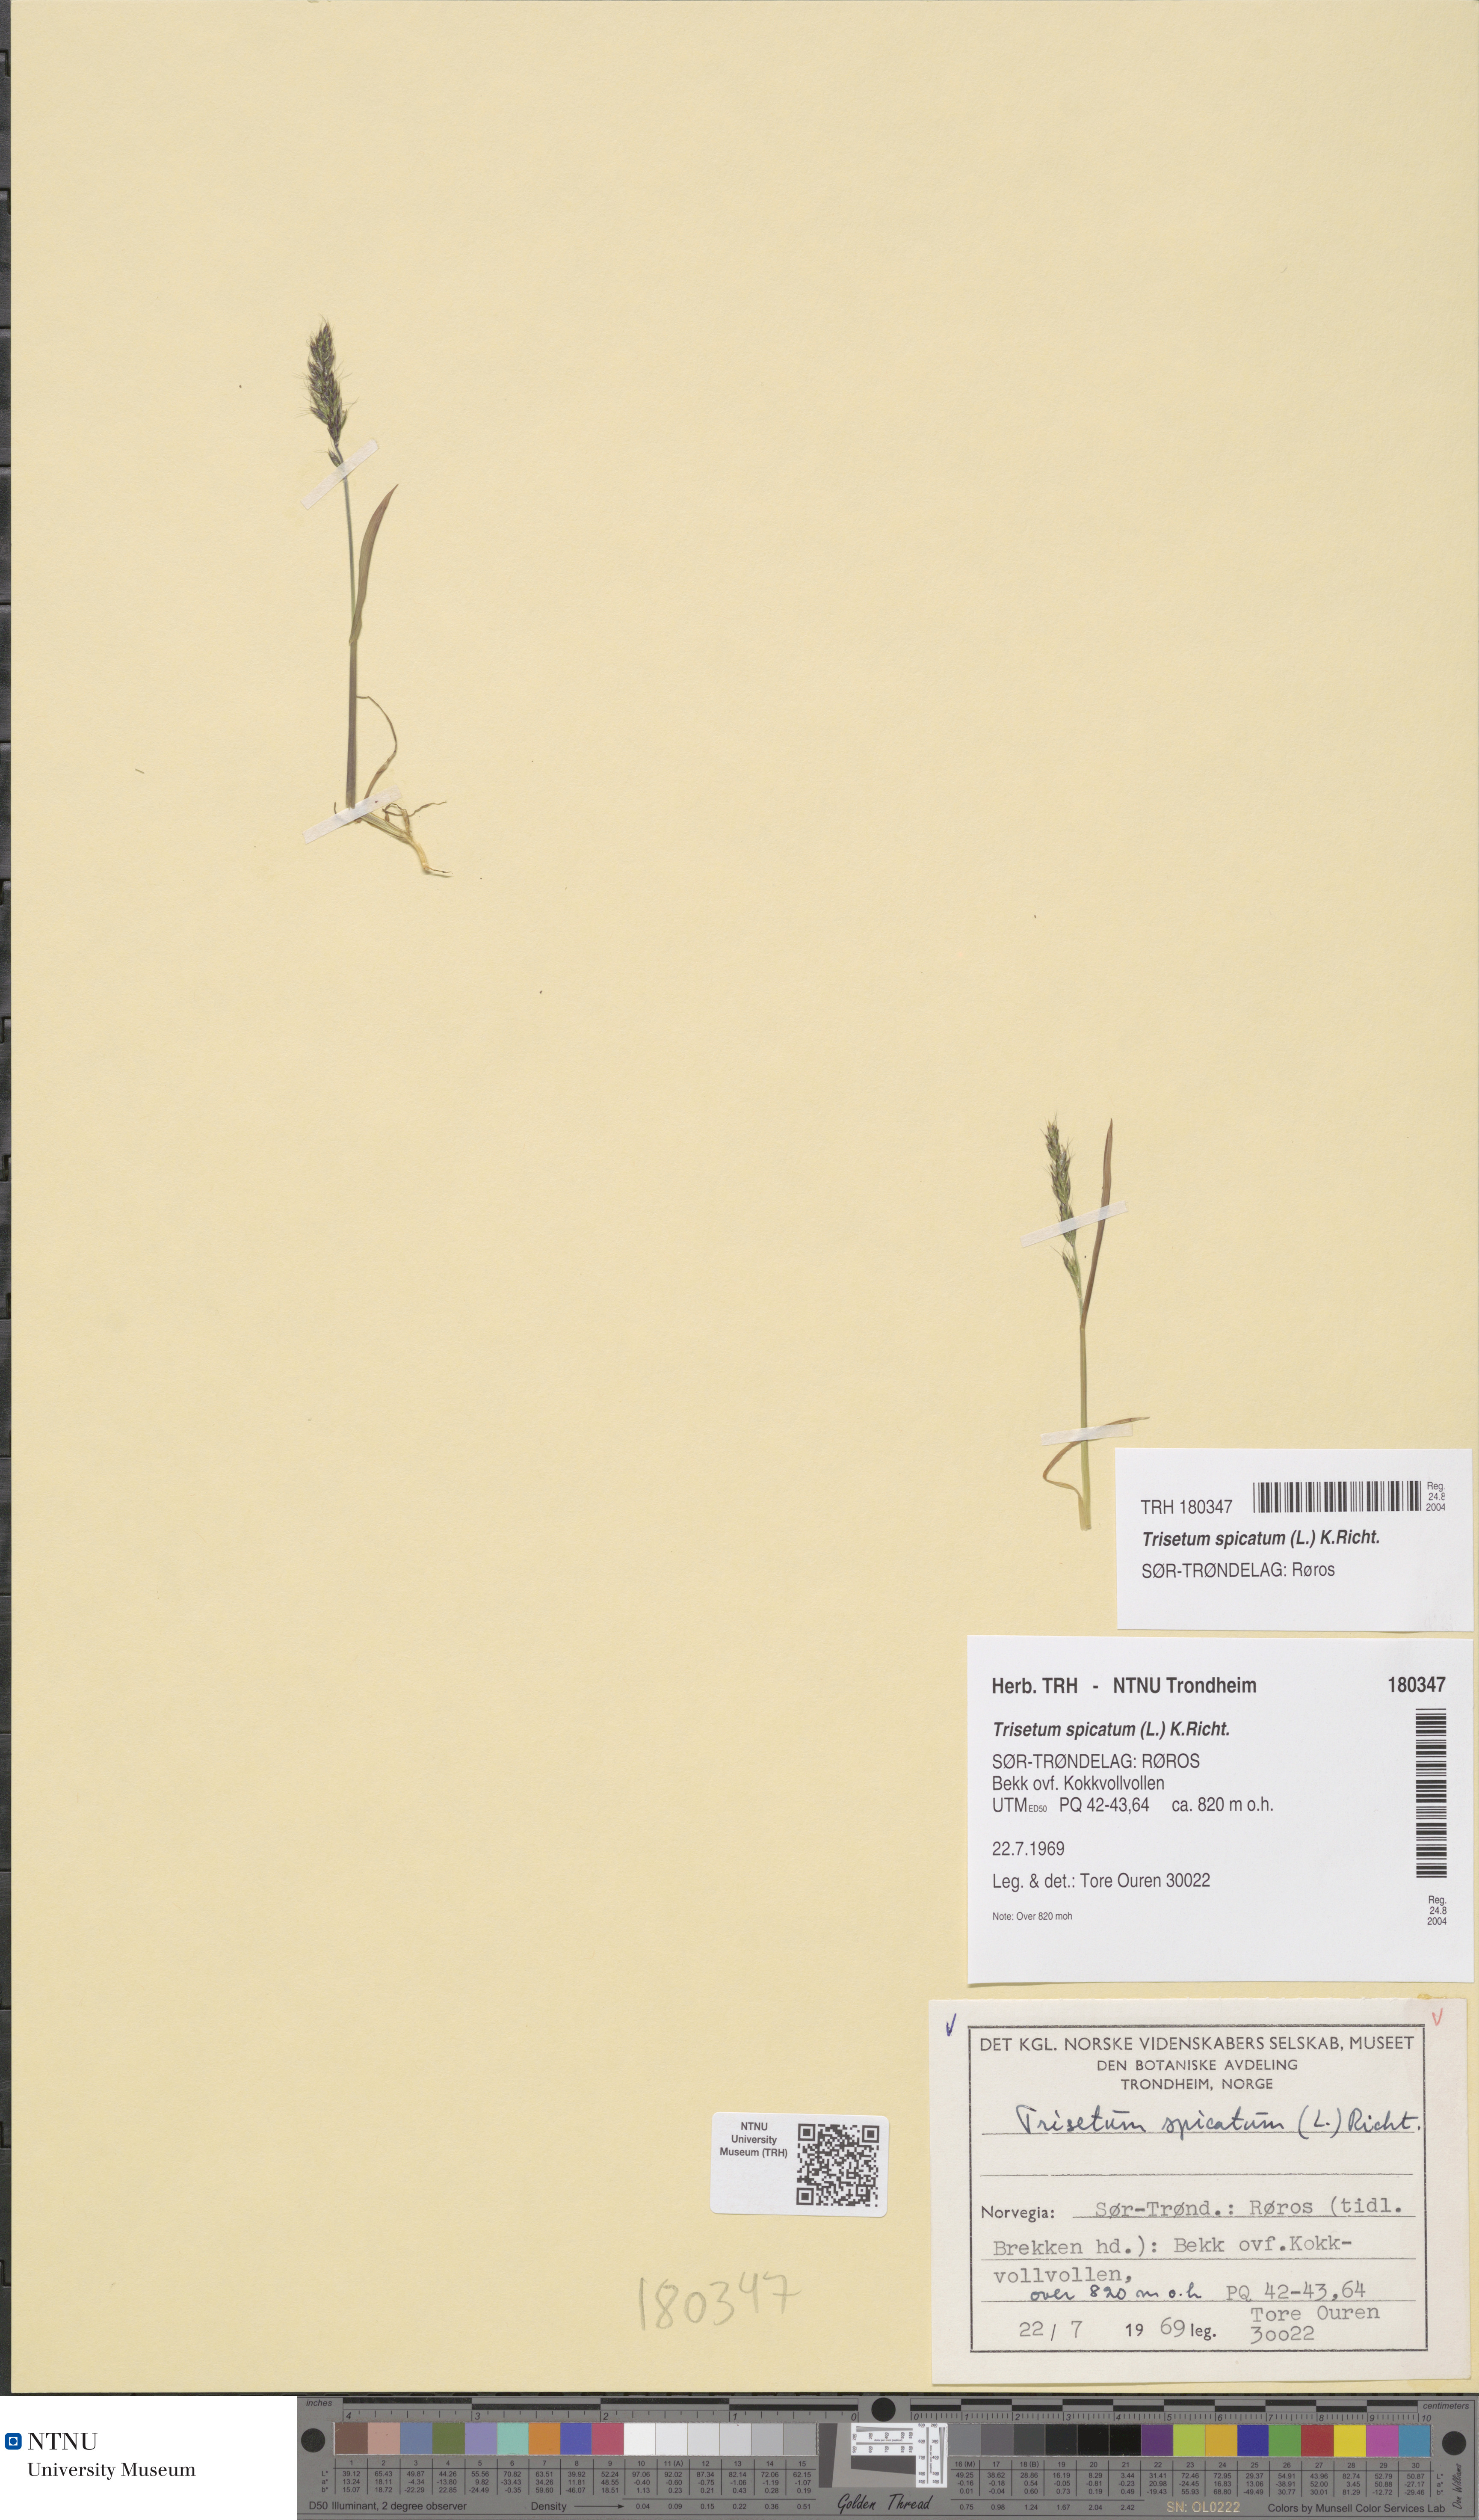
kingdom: Plantae
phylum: Tracheophyta
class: Liliopsida
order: Poales
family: Poaceae
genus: Koeleria
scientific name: Koeleria spicata
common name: Mountain trisetum
